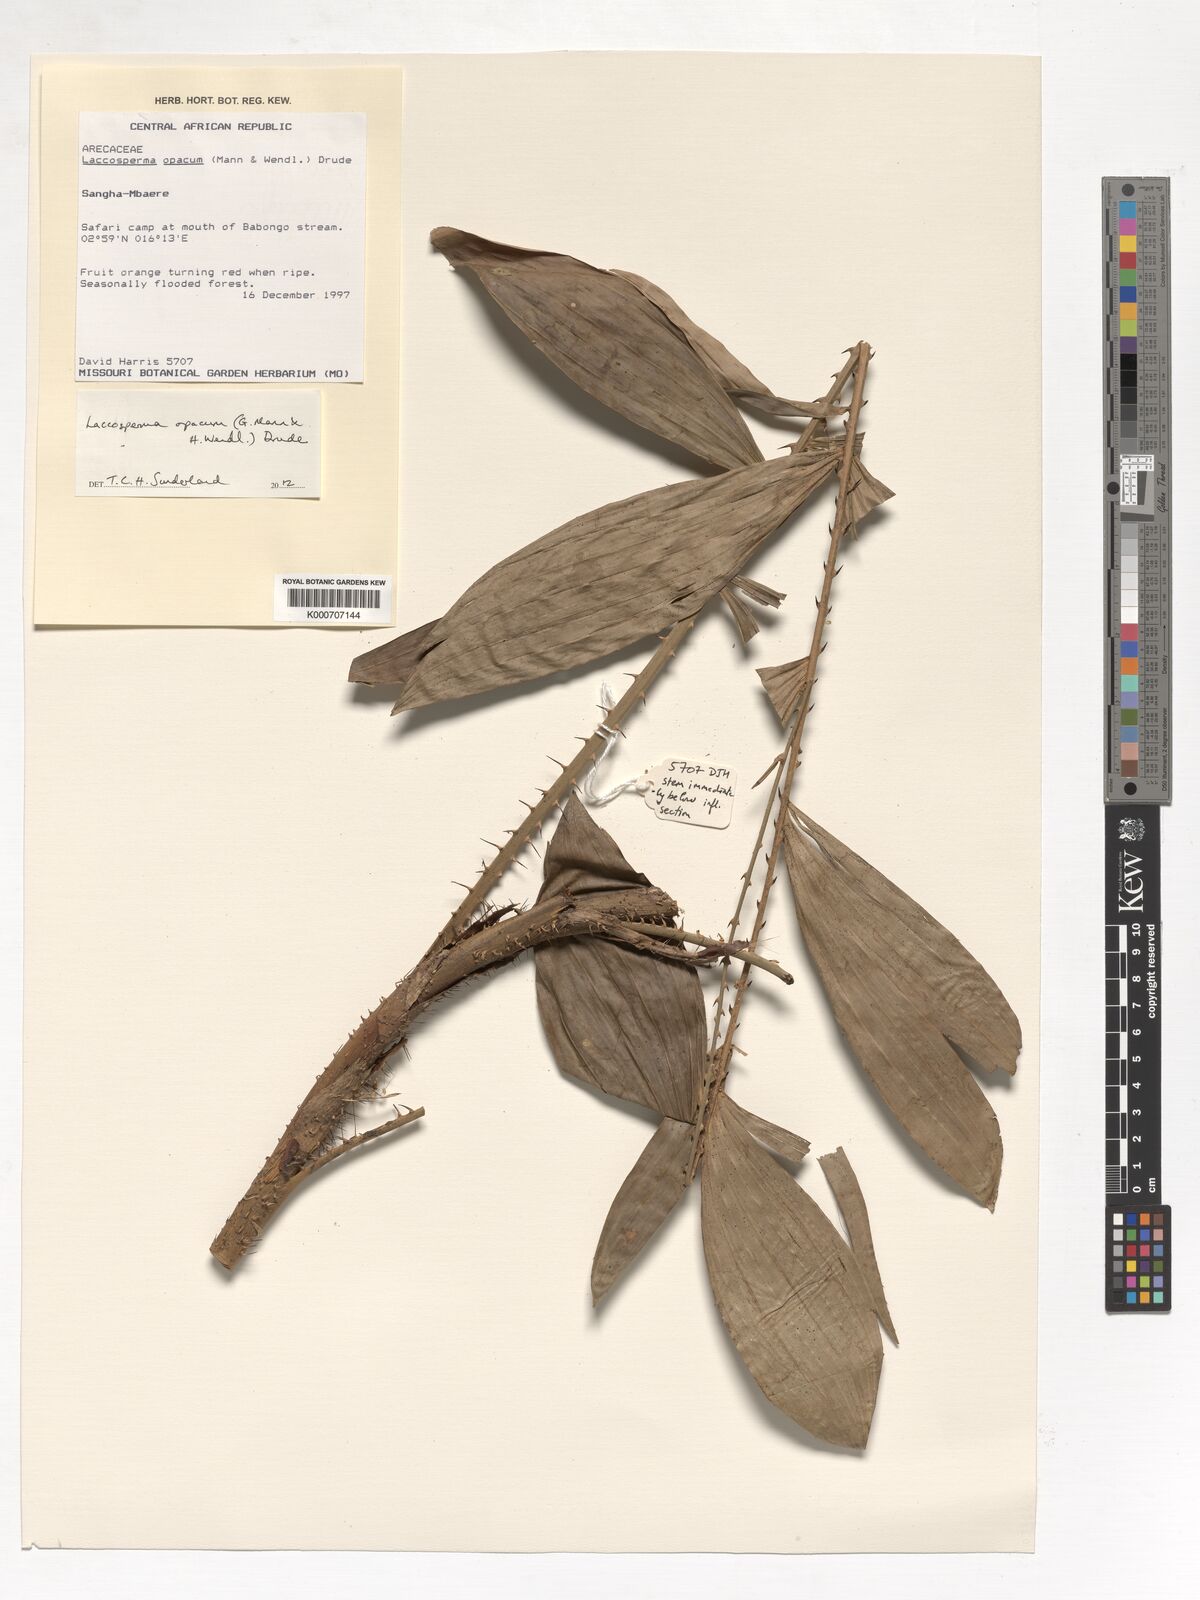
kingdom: Plantae
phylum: Tracheophyta
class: Liliopsida
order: Arecales
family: Arecaceae
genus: Laccosperma
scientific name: Laccosperma opacum
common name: Rattan
